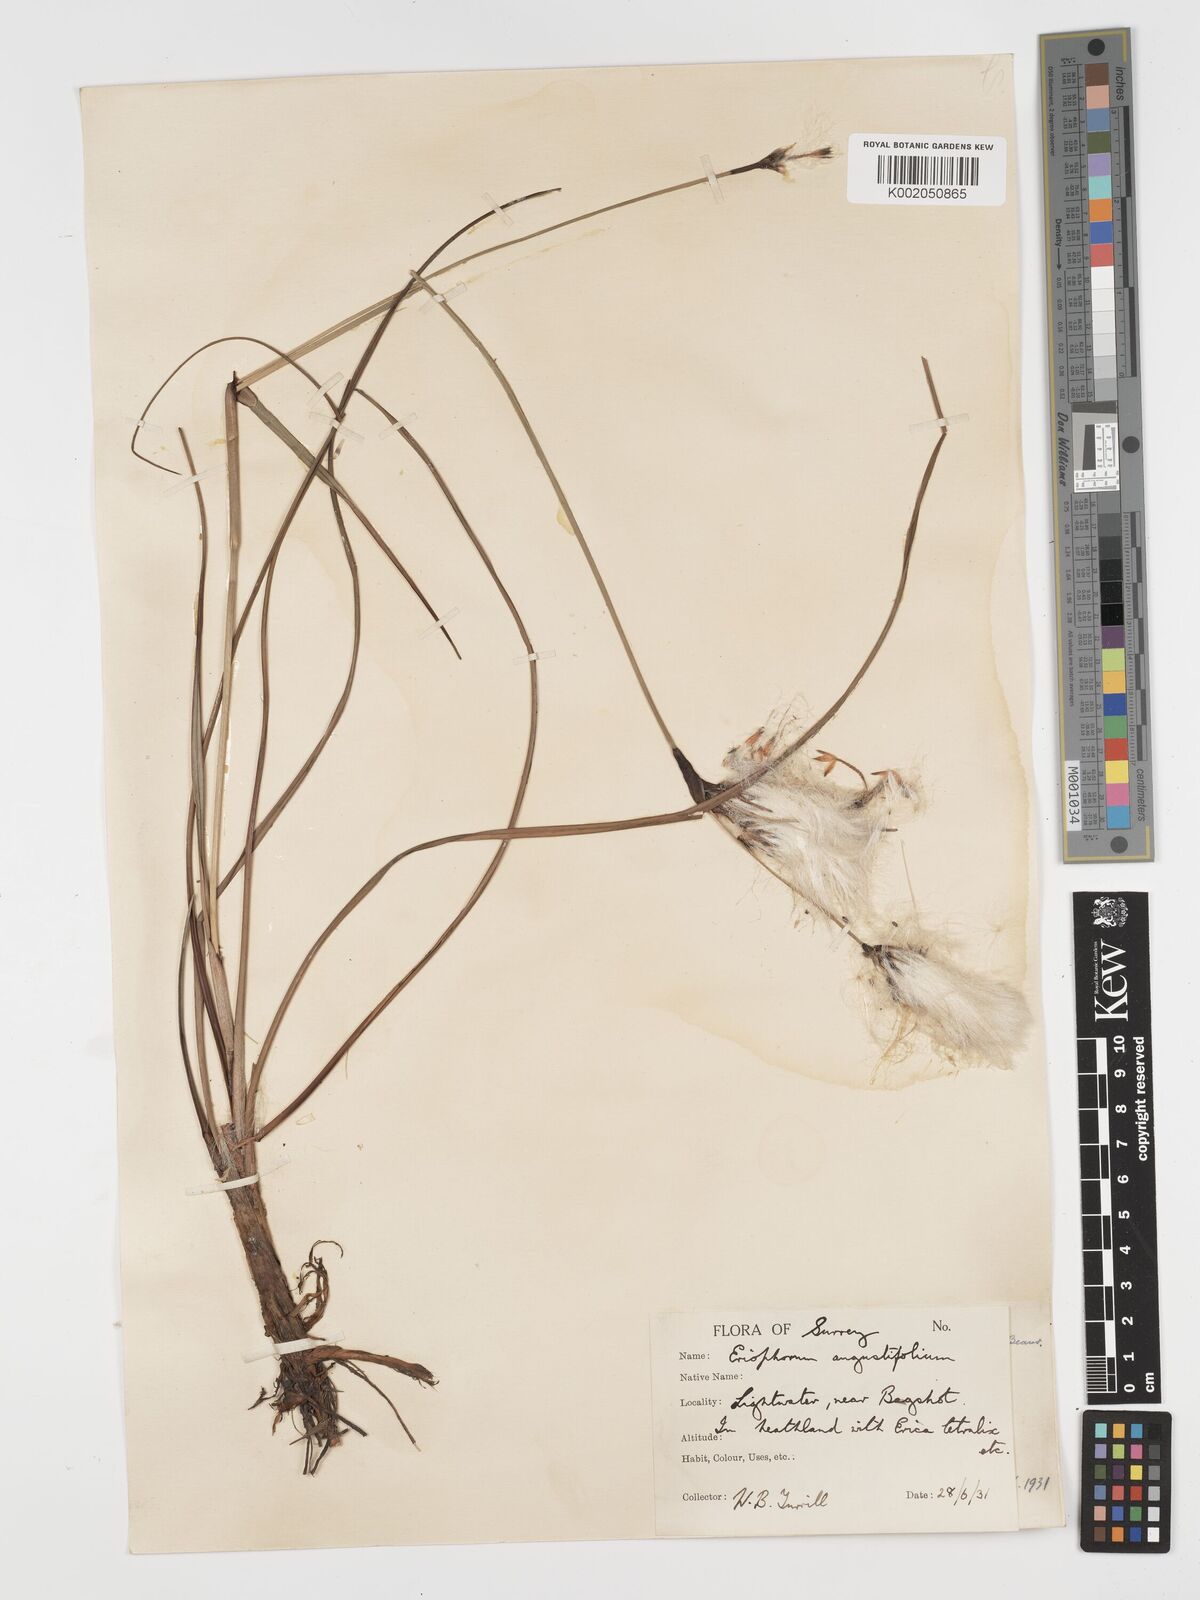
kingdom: Plantae
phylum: Tracheophyta
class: Liliopsida
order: Poales
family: Cyperaceae
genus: Eriophorum
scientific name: Eriophorum angustifolium
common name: Common cottongrass
